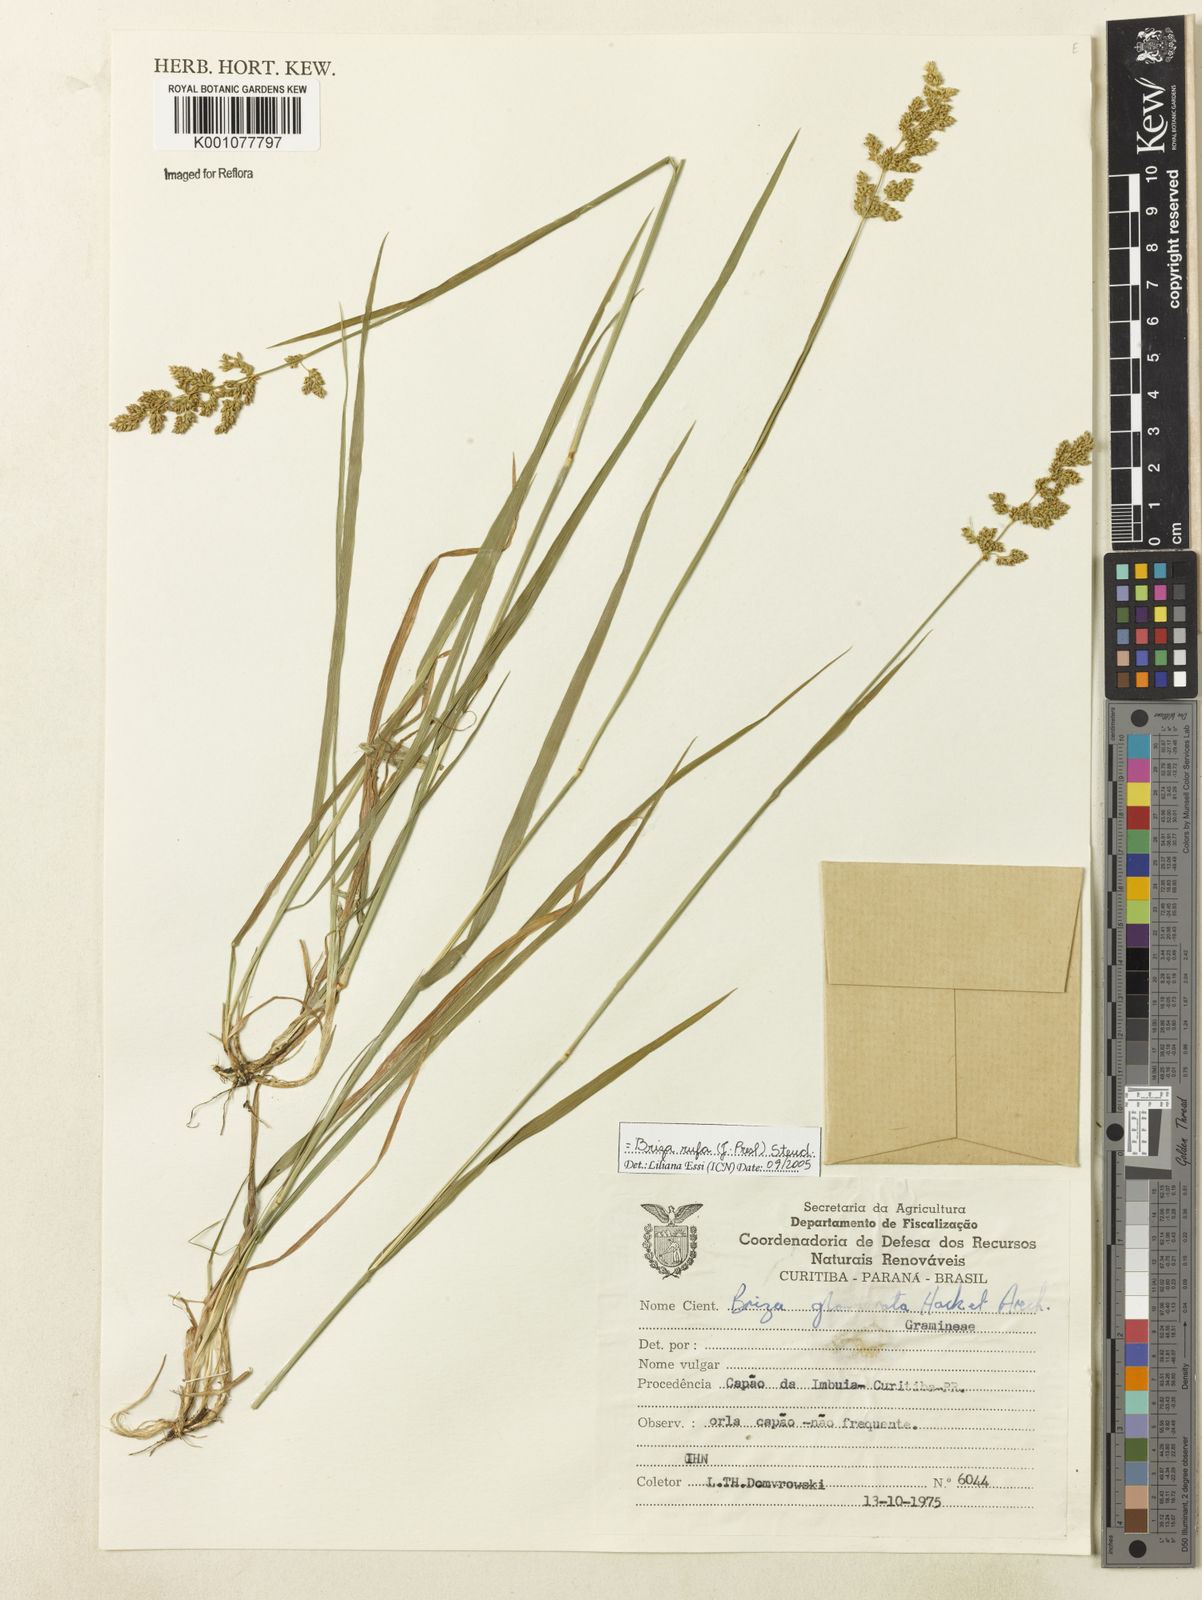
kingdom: Plantae
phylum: Tracheophyta
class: Liliopsida
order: Poales
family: Poaceae
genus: Lombardochloa
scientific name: Lombardochloa rufa
